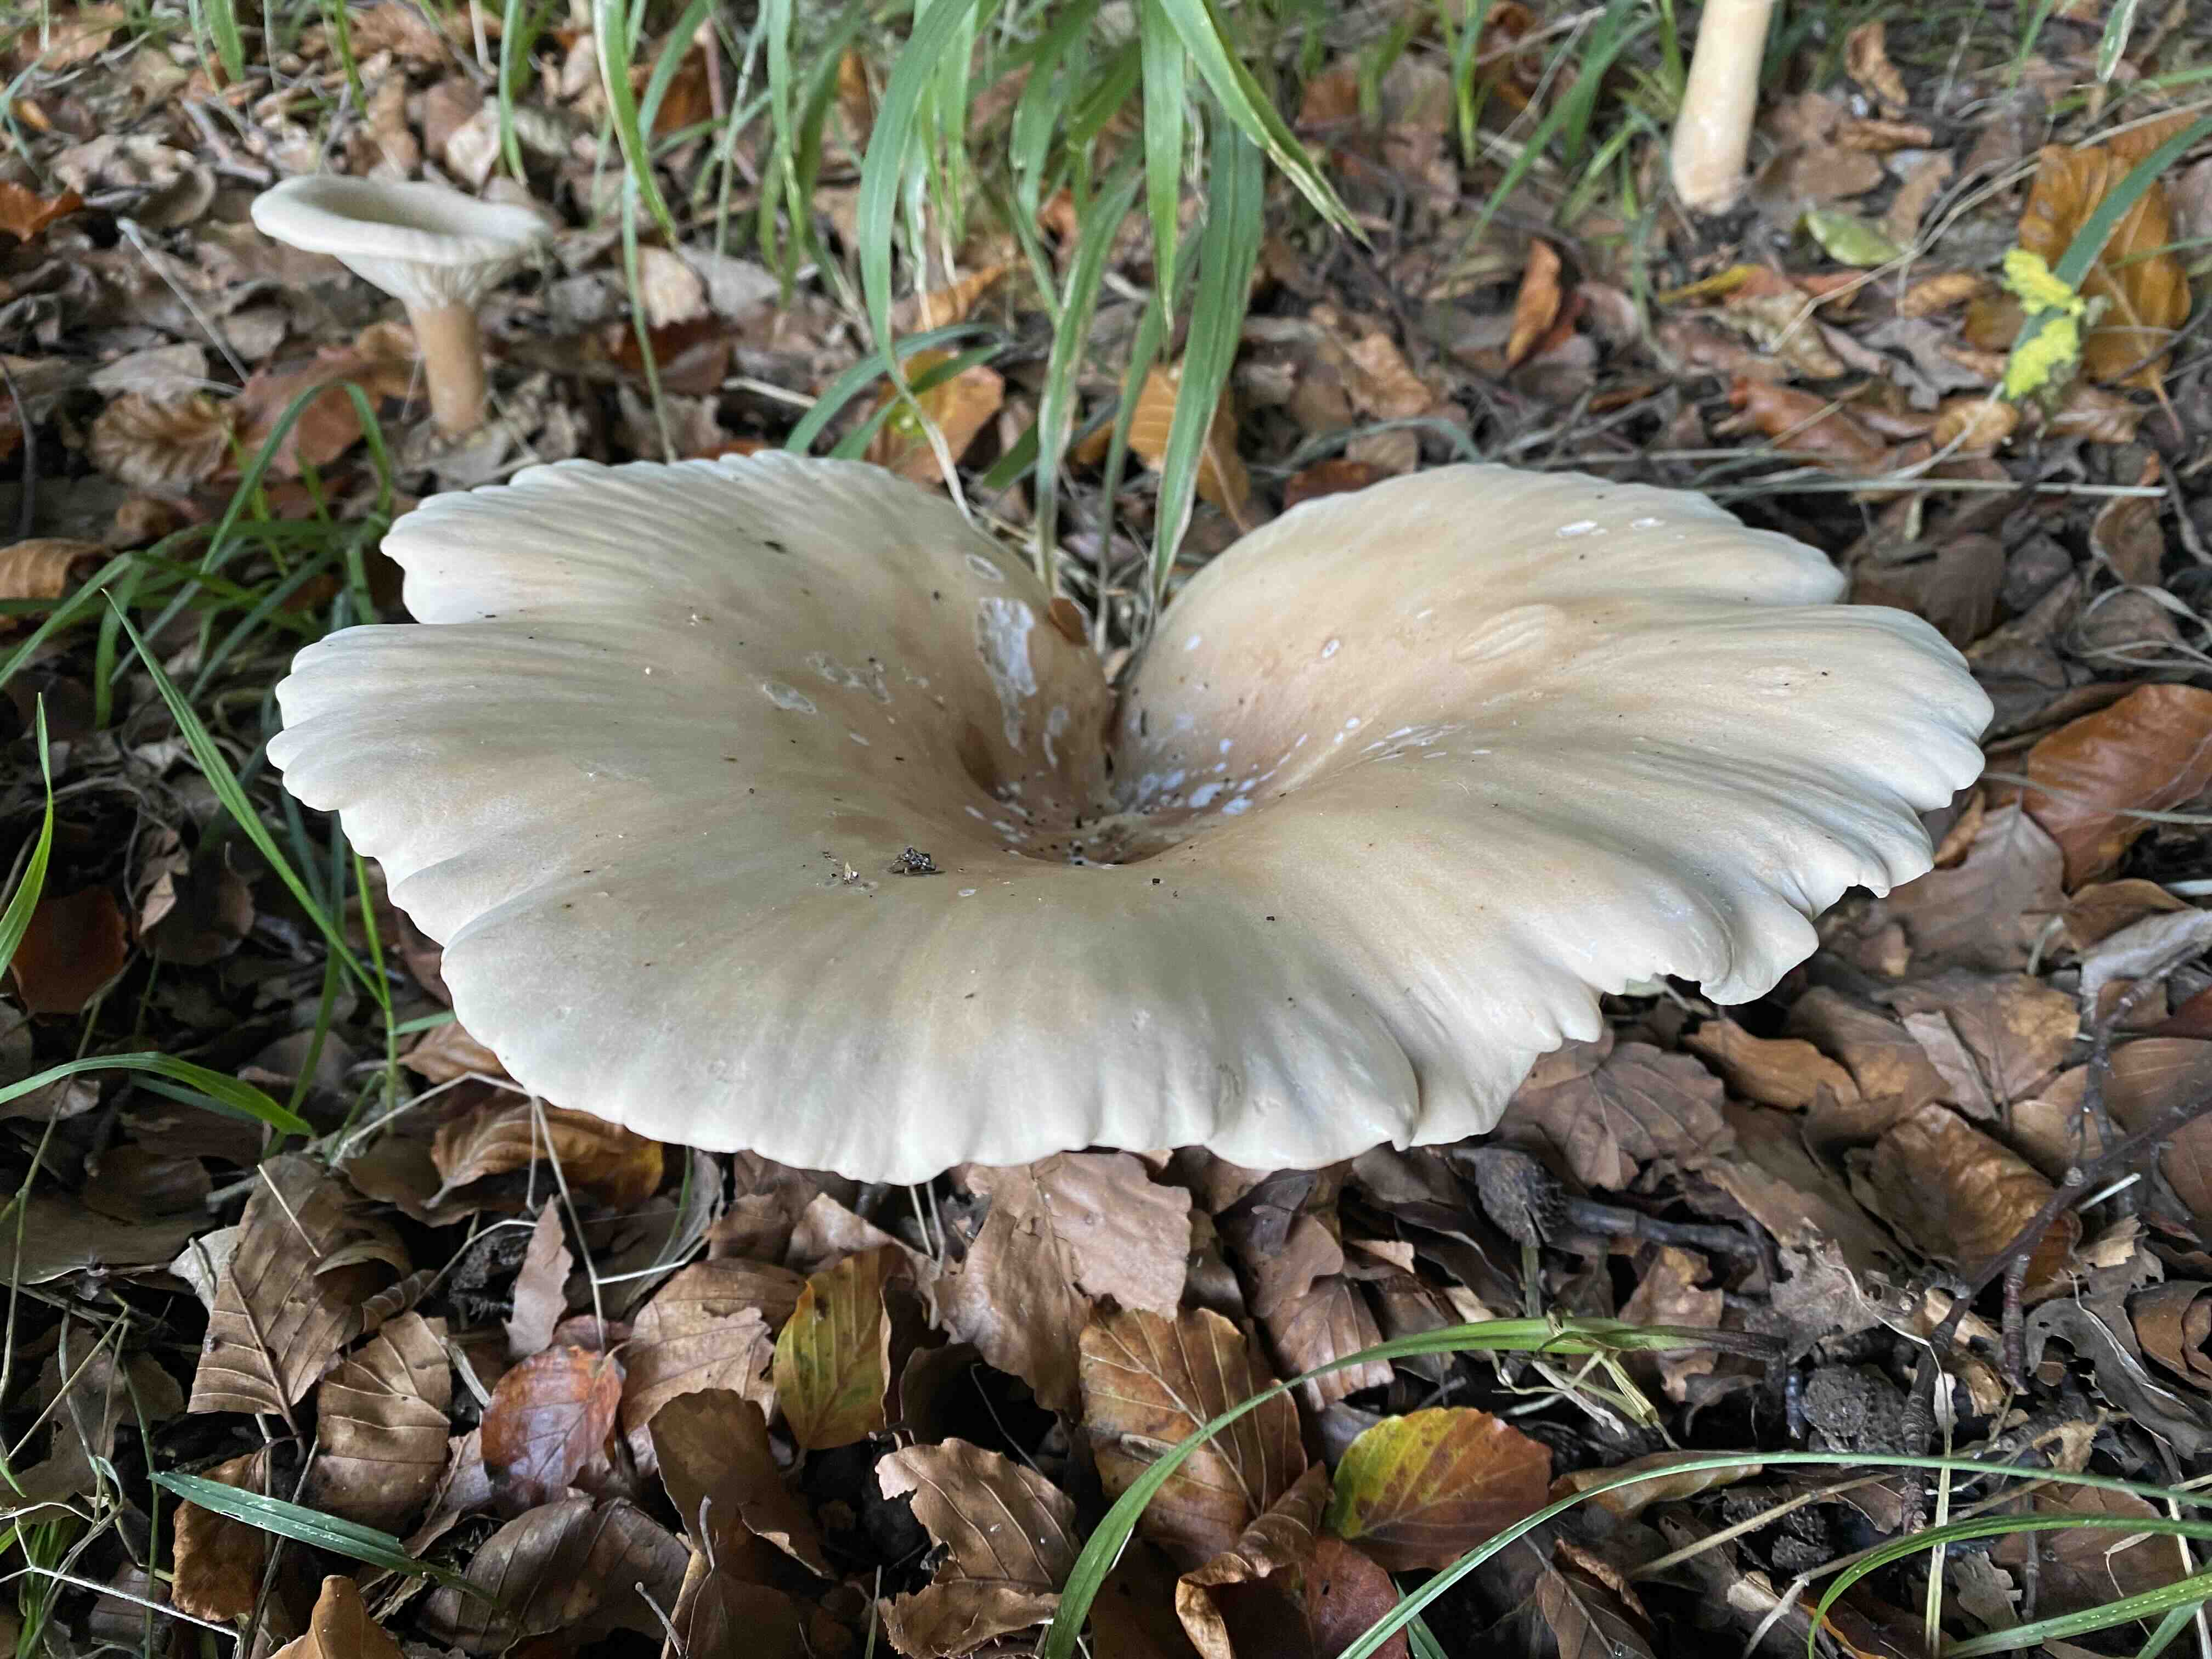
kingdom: Fungi
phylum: Basidiomycota
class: Agaricomycetes
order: Agaricales
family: Tricholomataceae
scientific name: Tricholomataceae
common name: ridderhatfamilien
